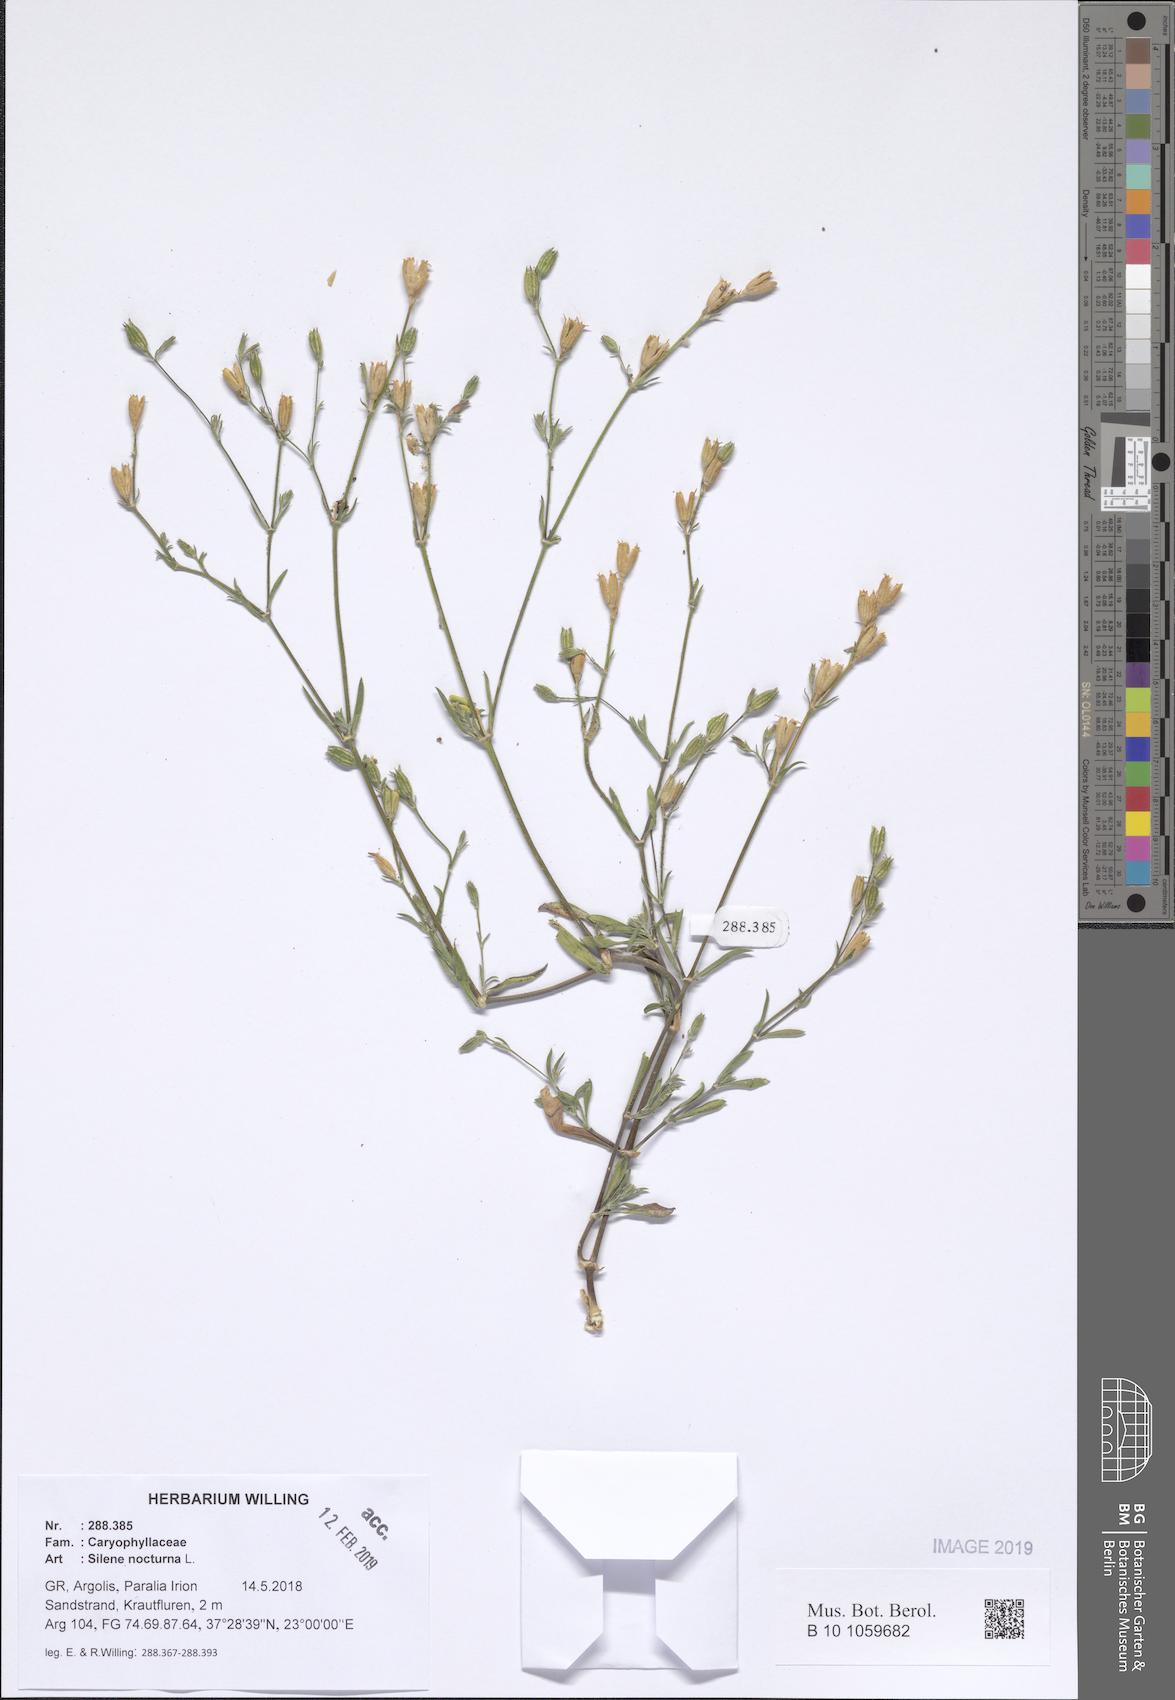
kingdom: Plantae
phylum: Tracheophyta
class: Magnoliopsida
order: Caryophyllales
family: Caryophyllaceae
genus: Silene
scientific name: Silene nocturna
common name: Mediterranean catchfly
